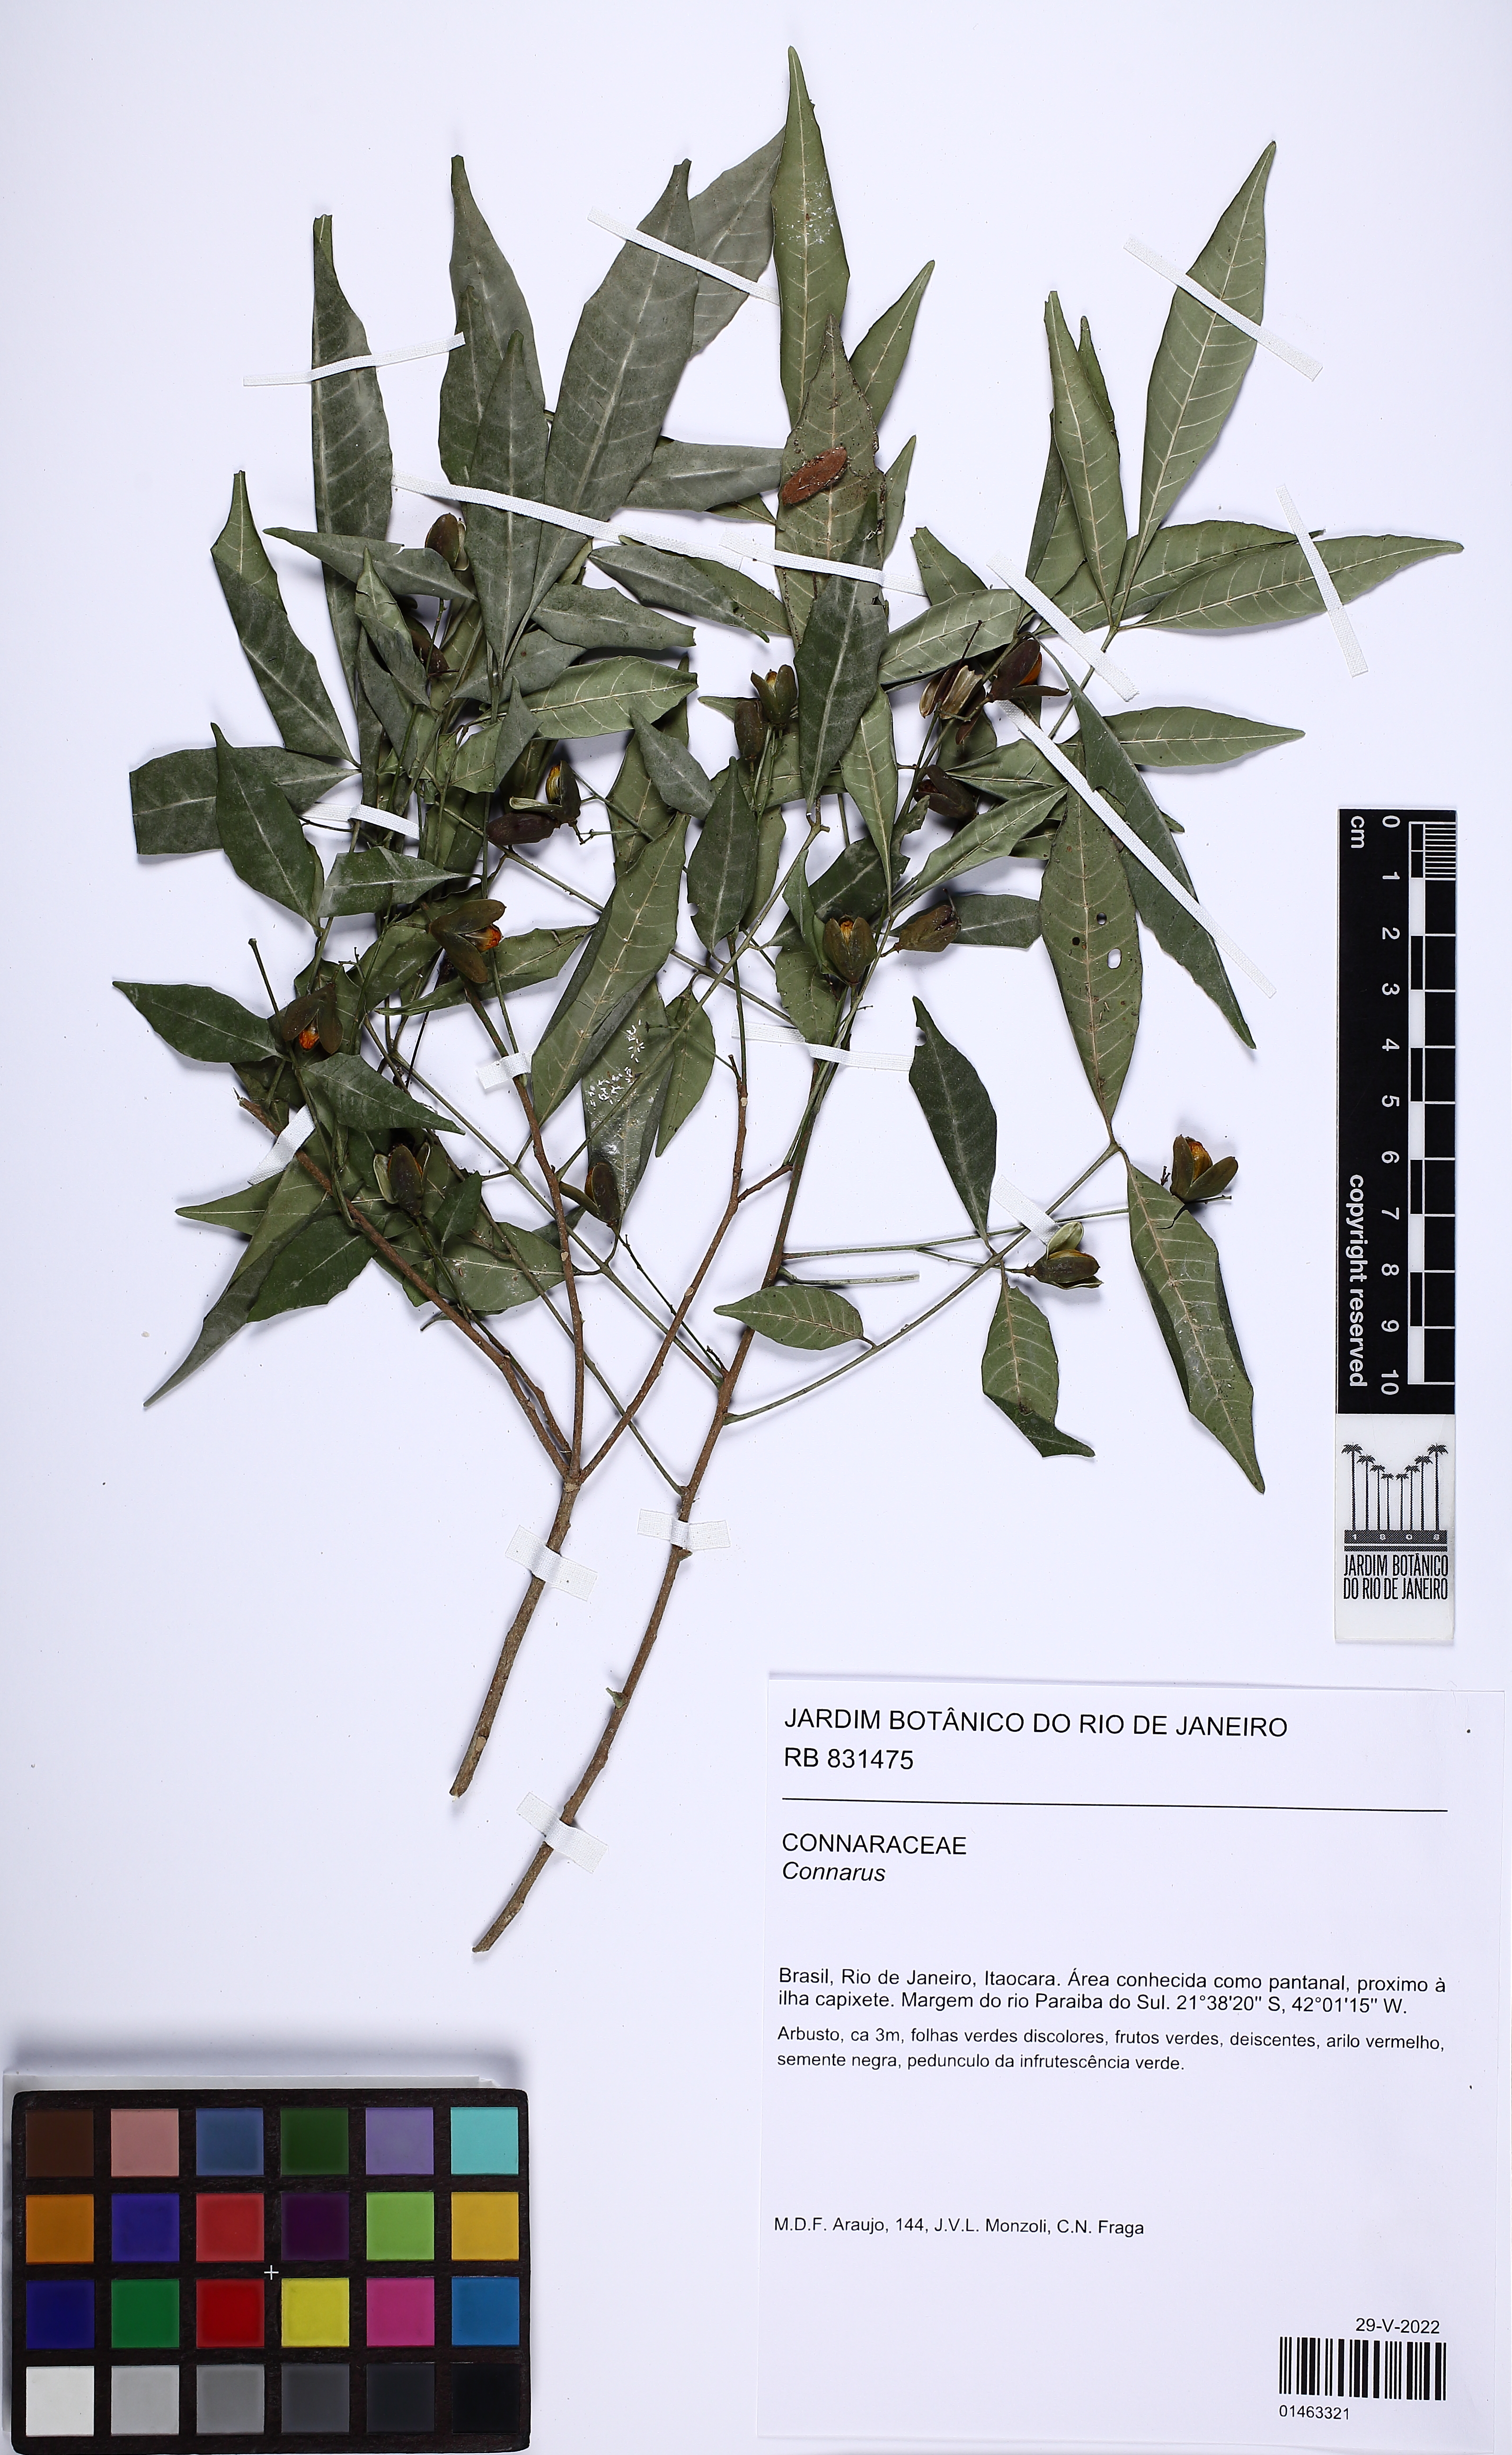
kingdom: Plantae
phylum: Tracheophyta
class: Magnoliopsida
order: Oxalidales
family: Connaraceae
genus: Connarus
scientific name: Connarus
